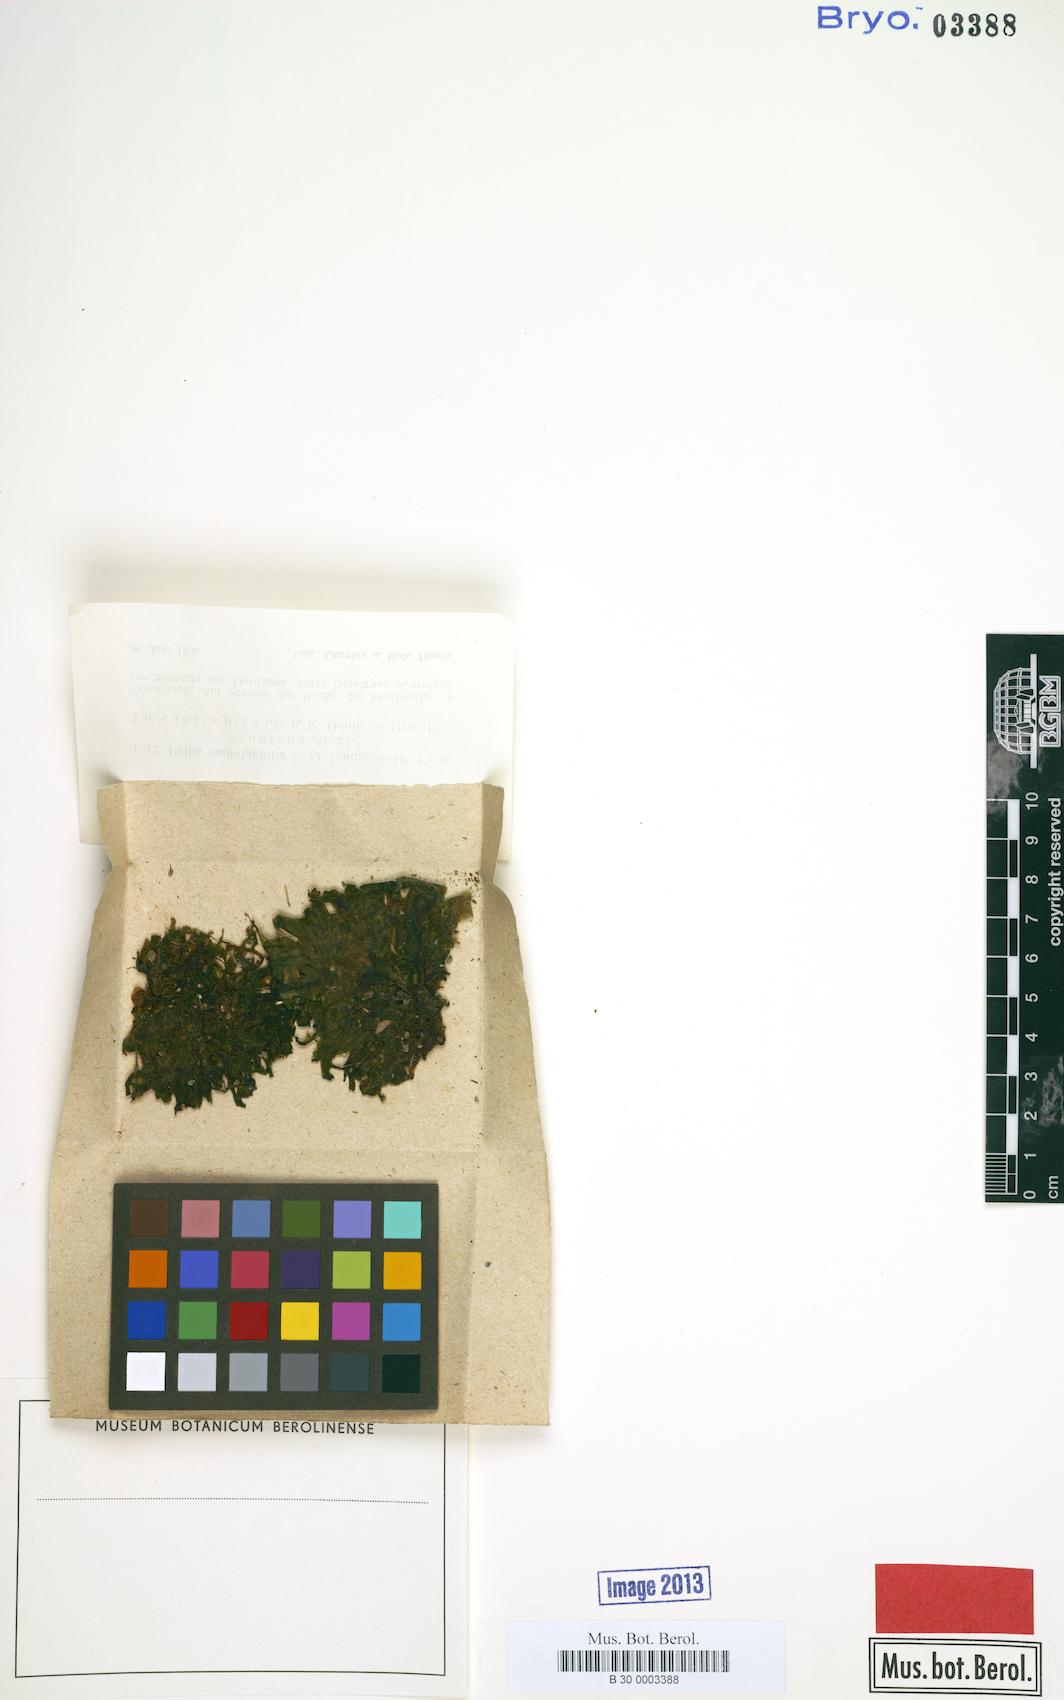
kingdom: Plantae
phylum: Marchantiophyta
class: Jungermanniopsida
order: Pelliales
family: Pelliaceae
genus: Apopellia
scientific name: Apopellia endiviifolia
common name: Endive pellia
